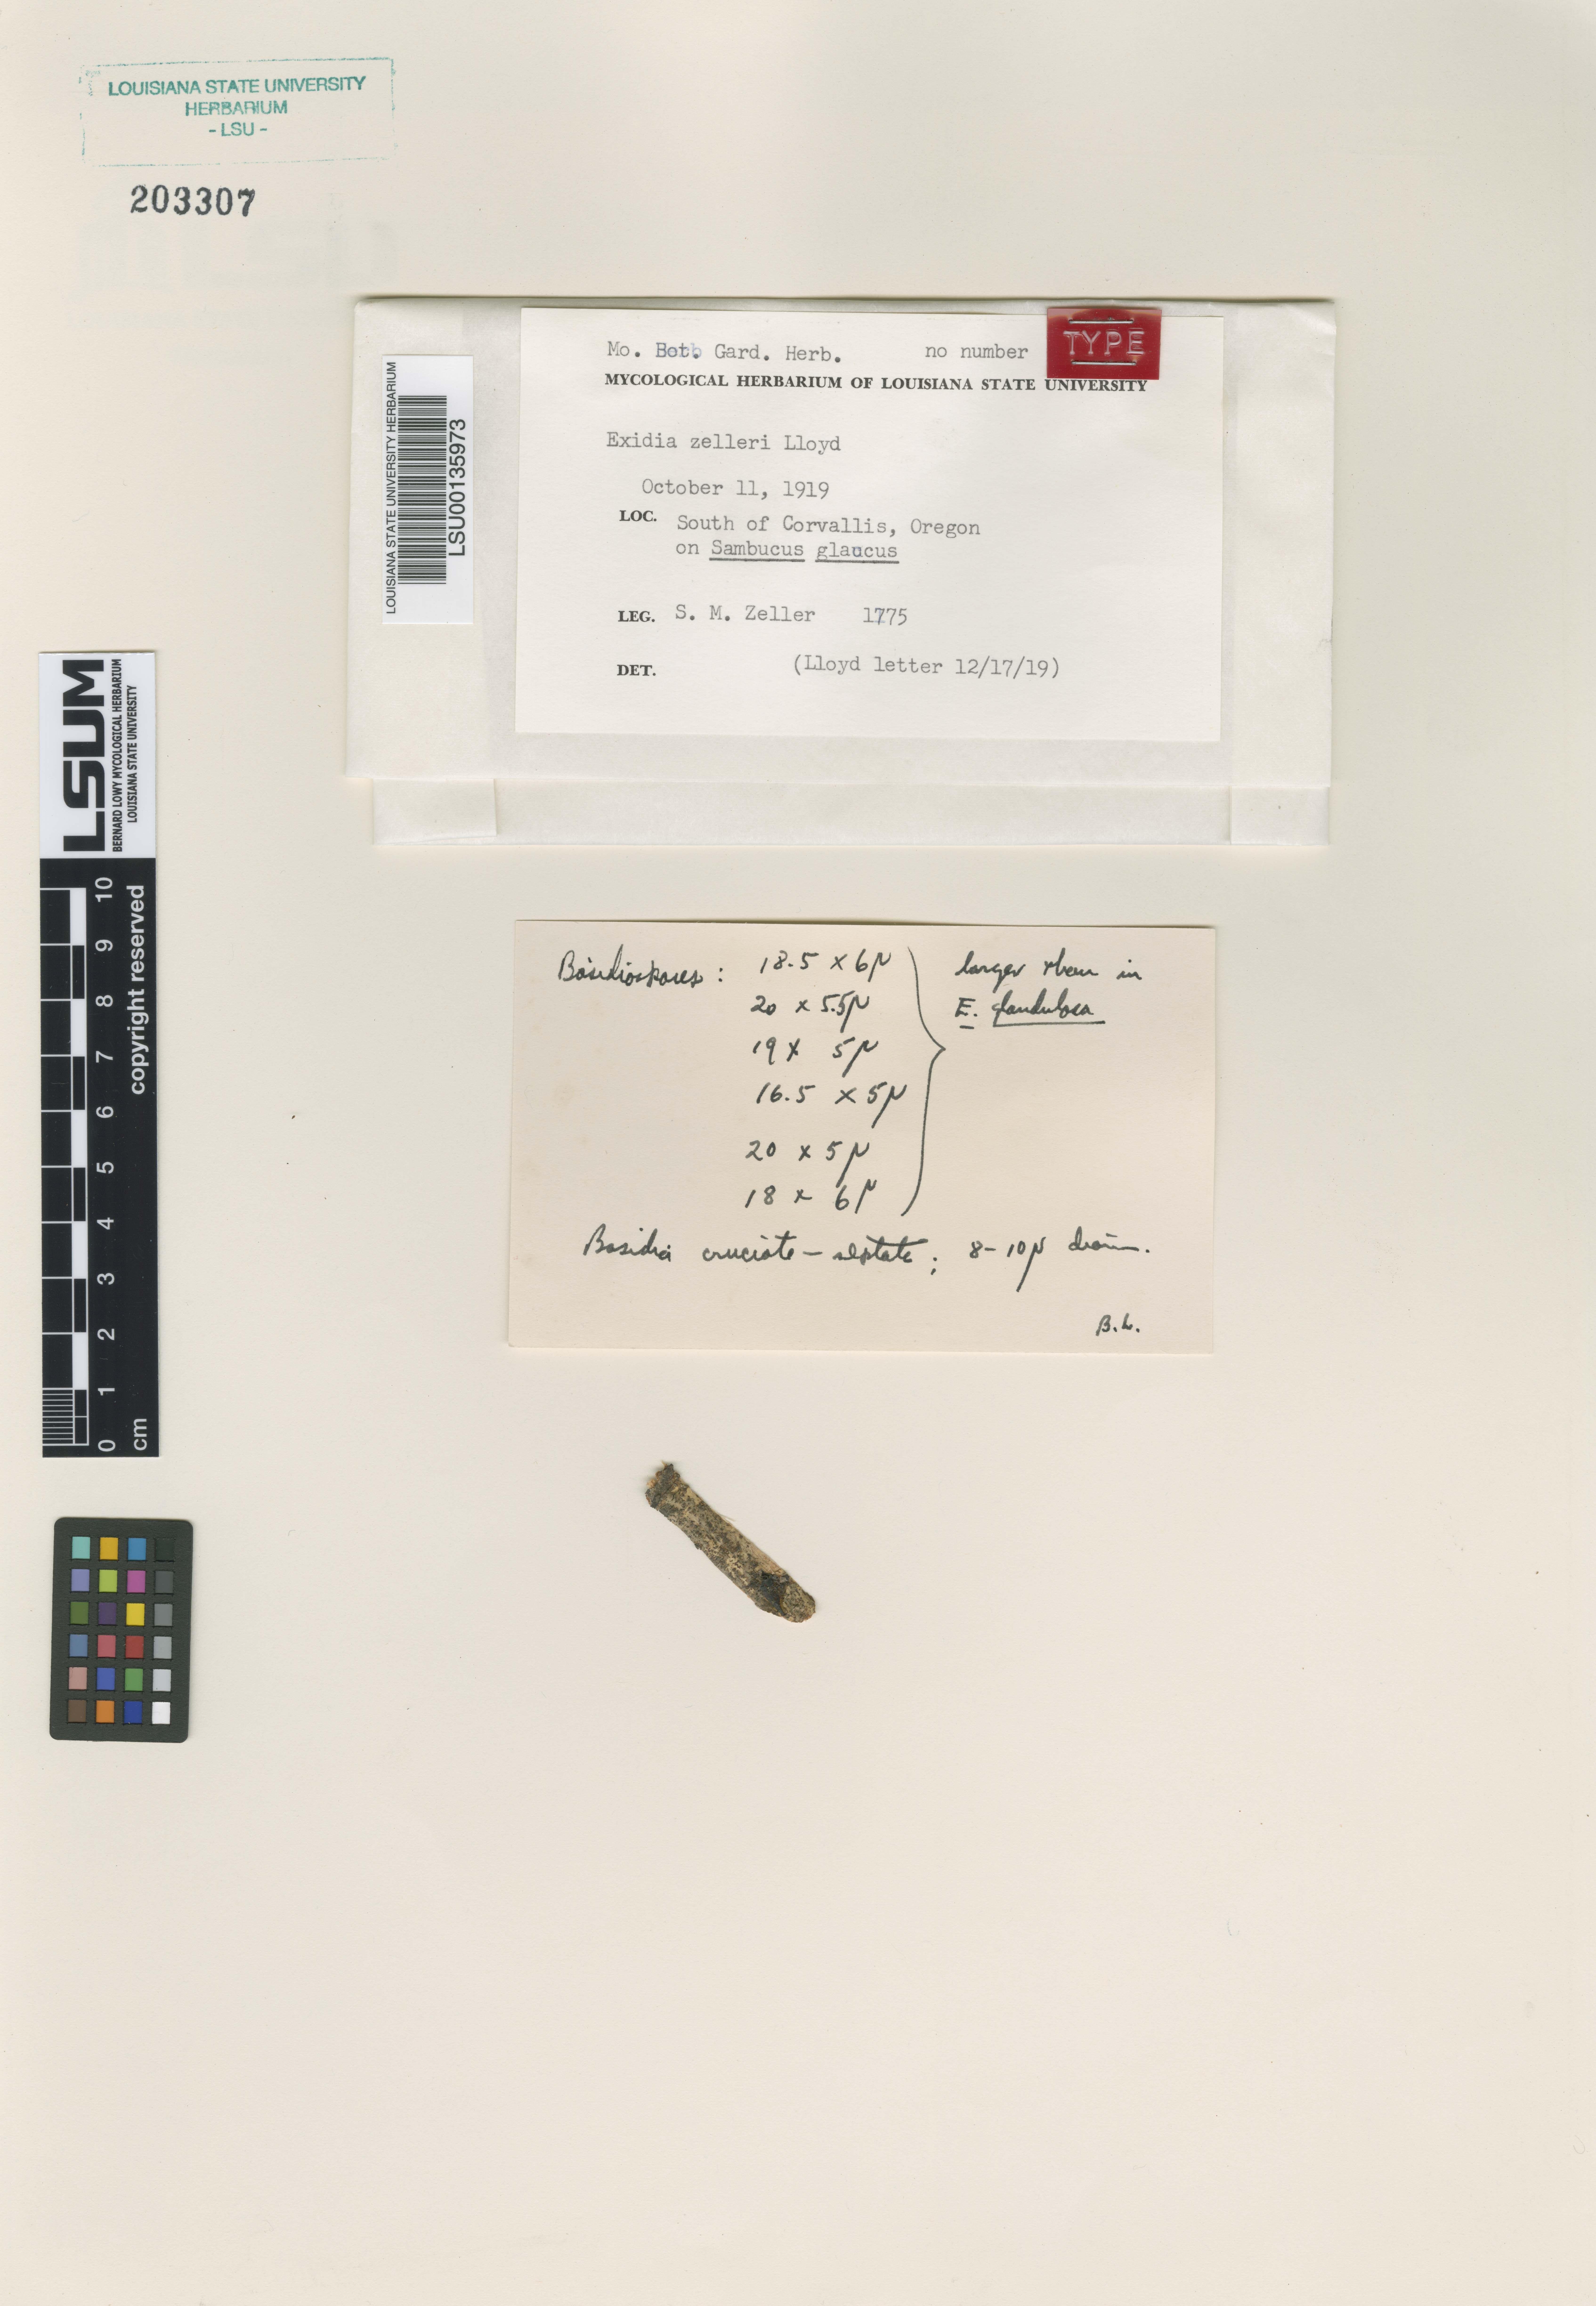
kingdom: Fungi
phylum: Basidiomycota
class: Agaricomycetes
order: Auriculariales
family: Auriculariaceae
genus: Exidia
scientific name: Exidia zelleri
